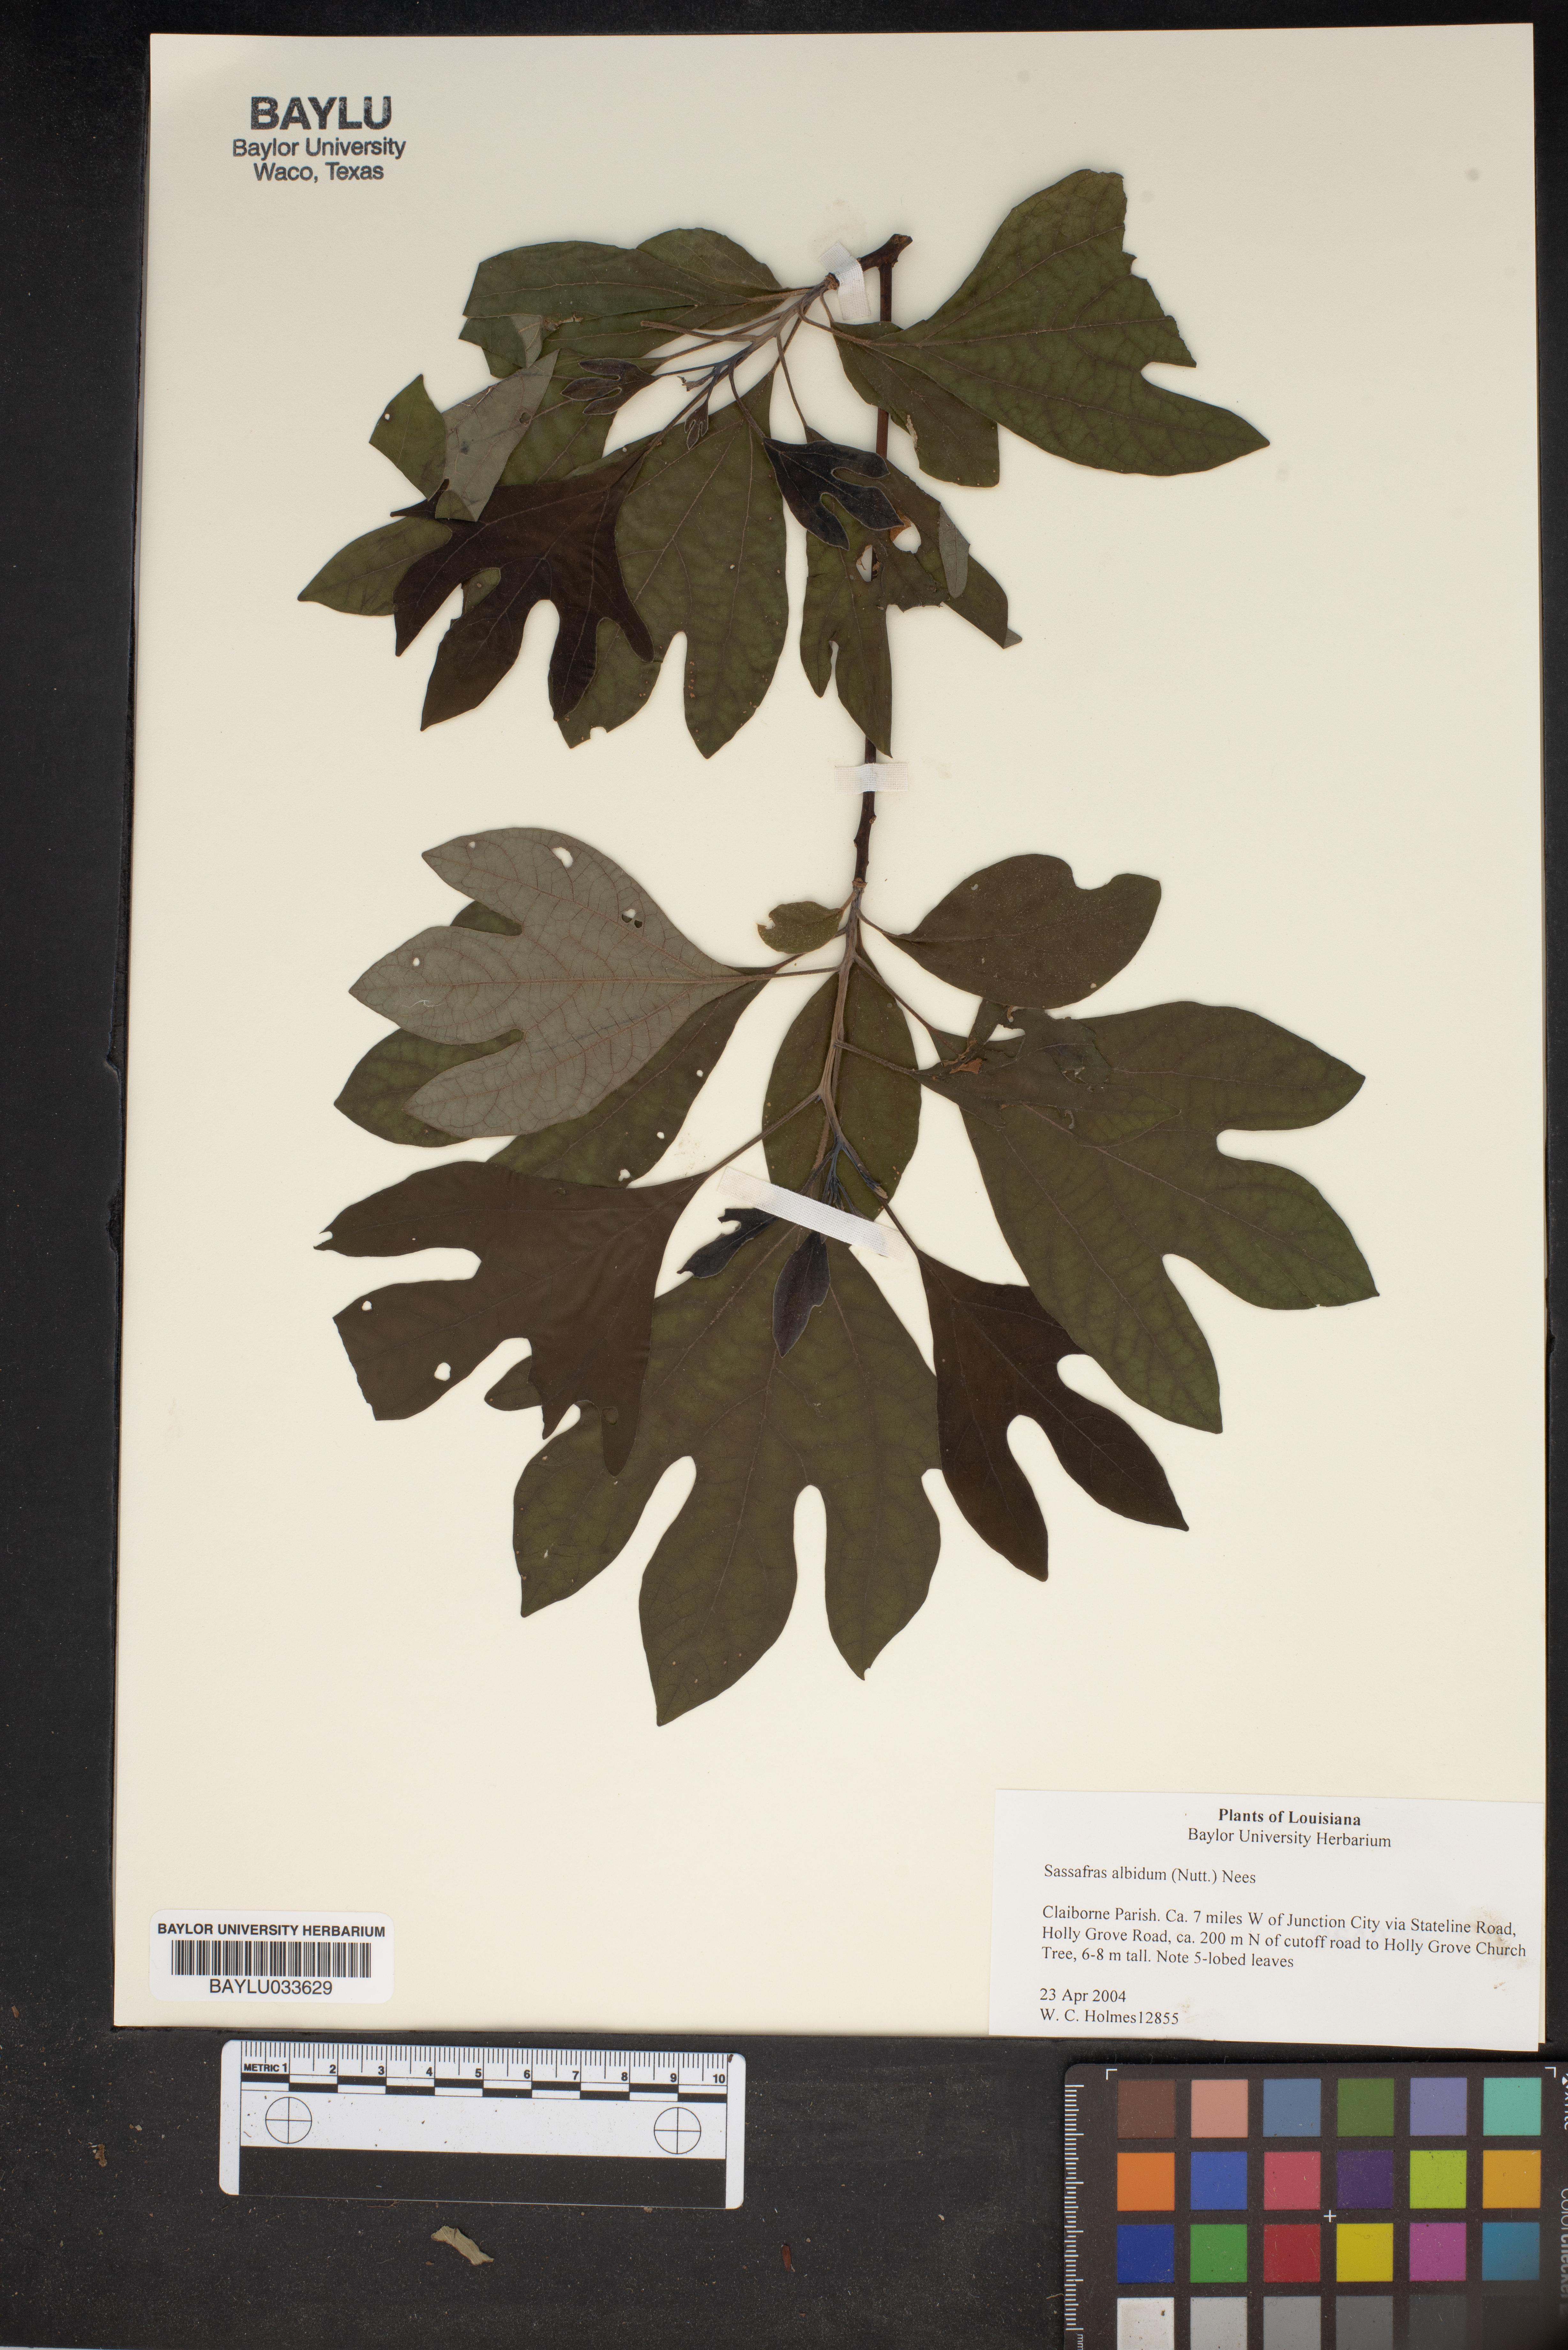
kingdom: Plantae
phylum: Tracheophyta
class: Magnoliopsida
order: Laurales
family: Lauraceae
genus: Sassafras
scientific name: Sassafras albidum
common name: Sassafras
